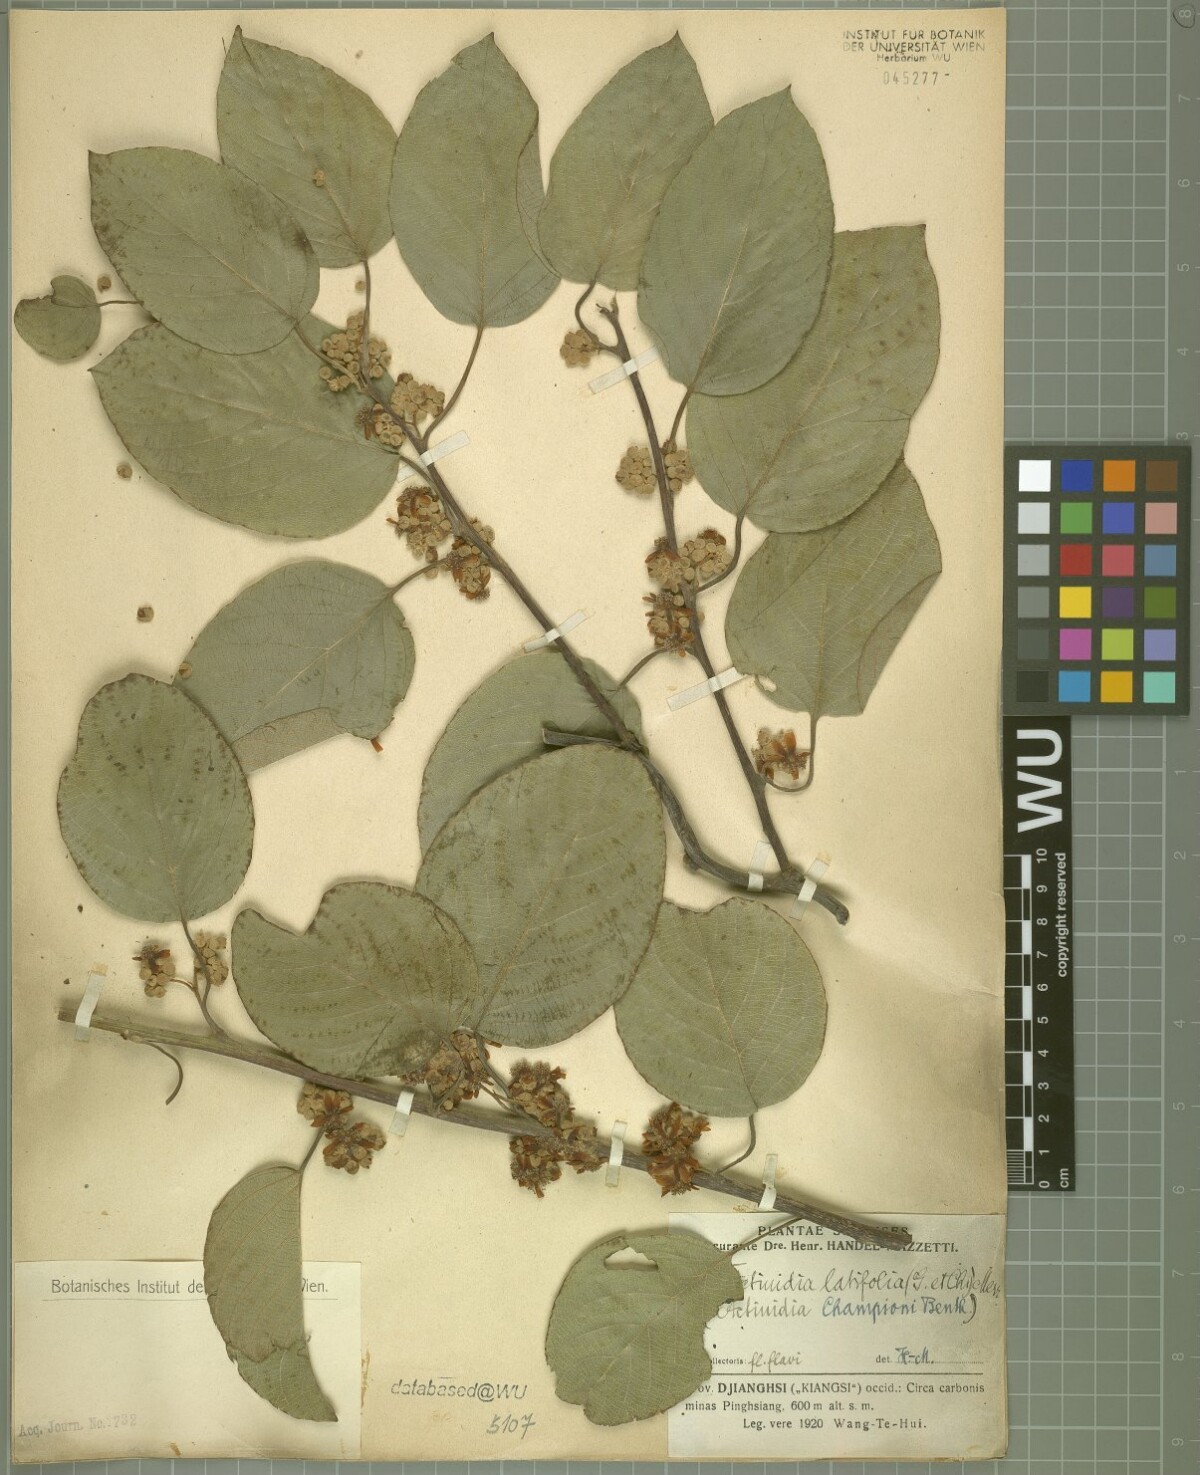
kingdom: Plantae
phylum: Tracheophyta
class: Magnoliopsida
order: Ericales
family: Actinidiaceae
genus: Actinidia
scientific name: Actinidia latifolia
